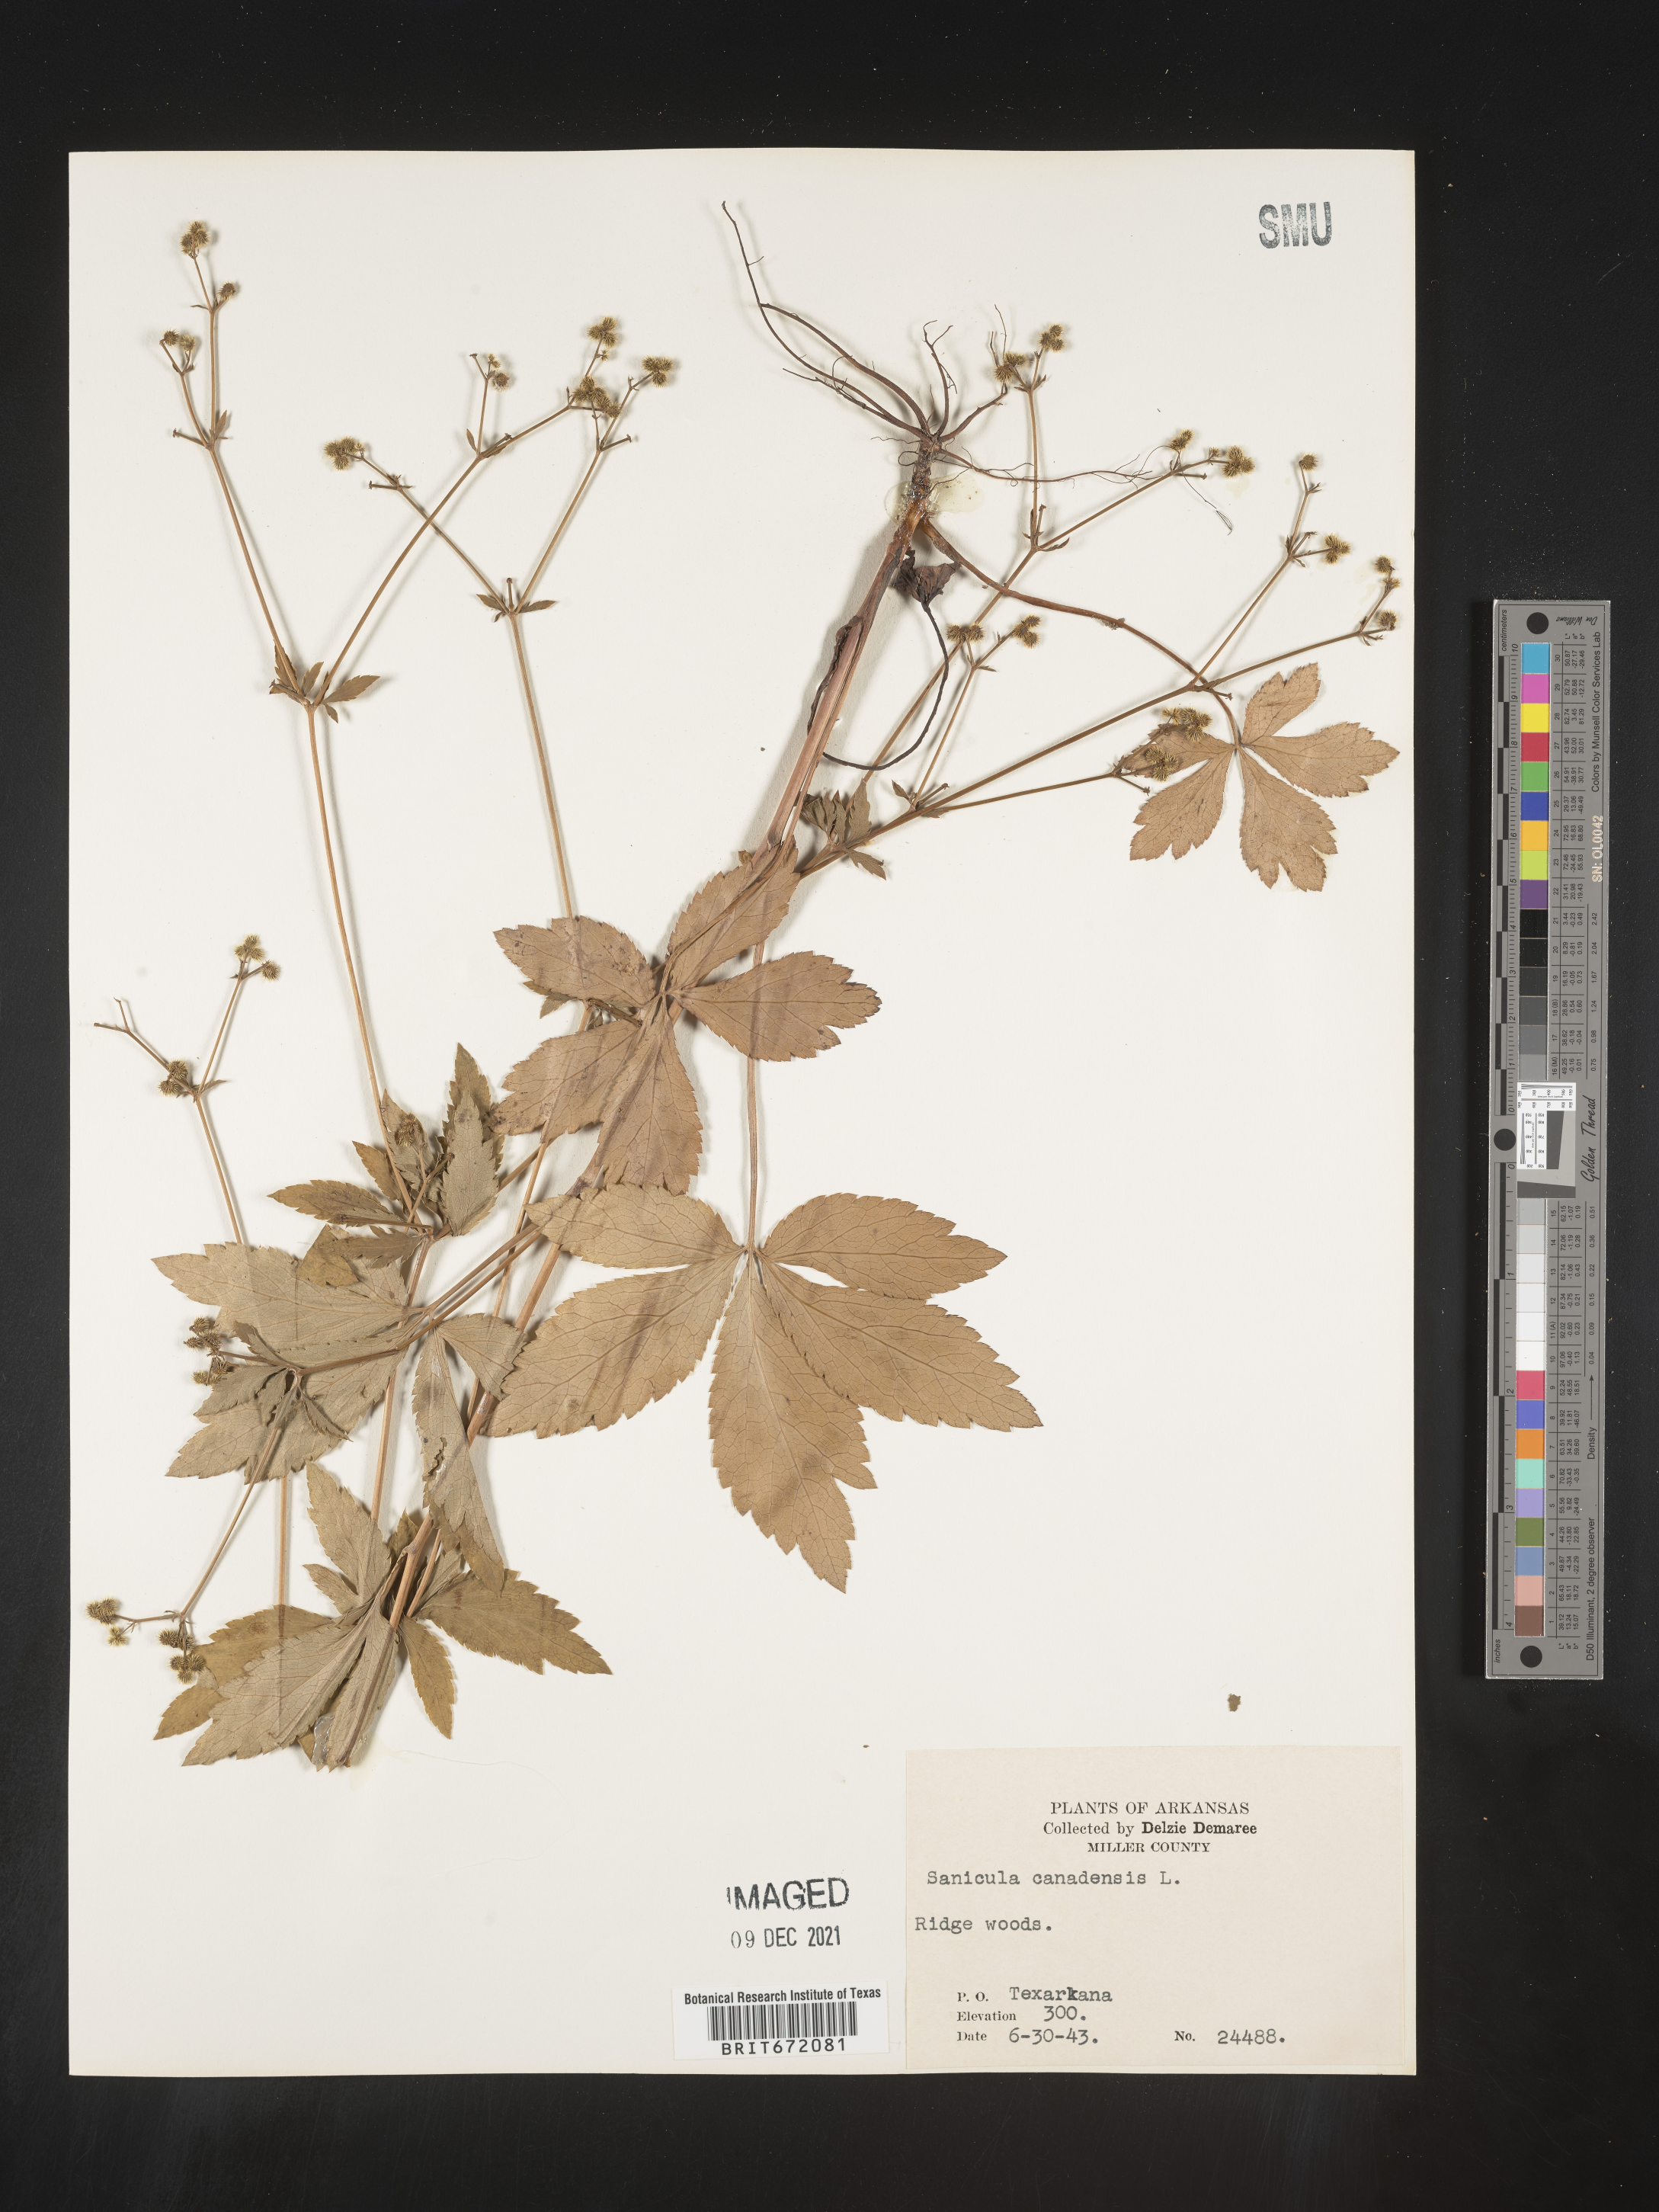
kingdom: Plantae
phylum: Tracheophyta
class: Magnoliopsida
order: Apiales
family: Apiaceae
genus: Sanicula
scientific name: Sanicula canadensis
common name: Canada sanicle
